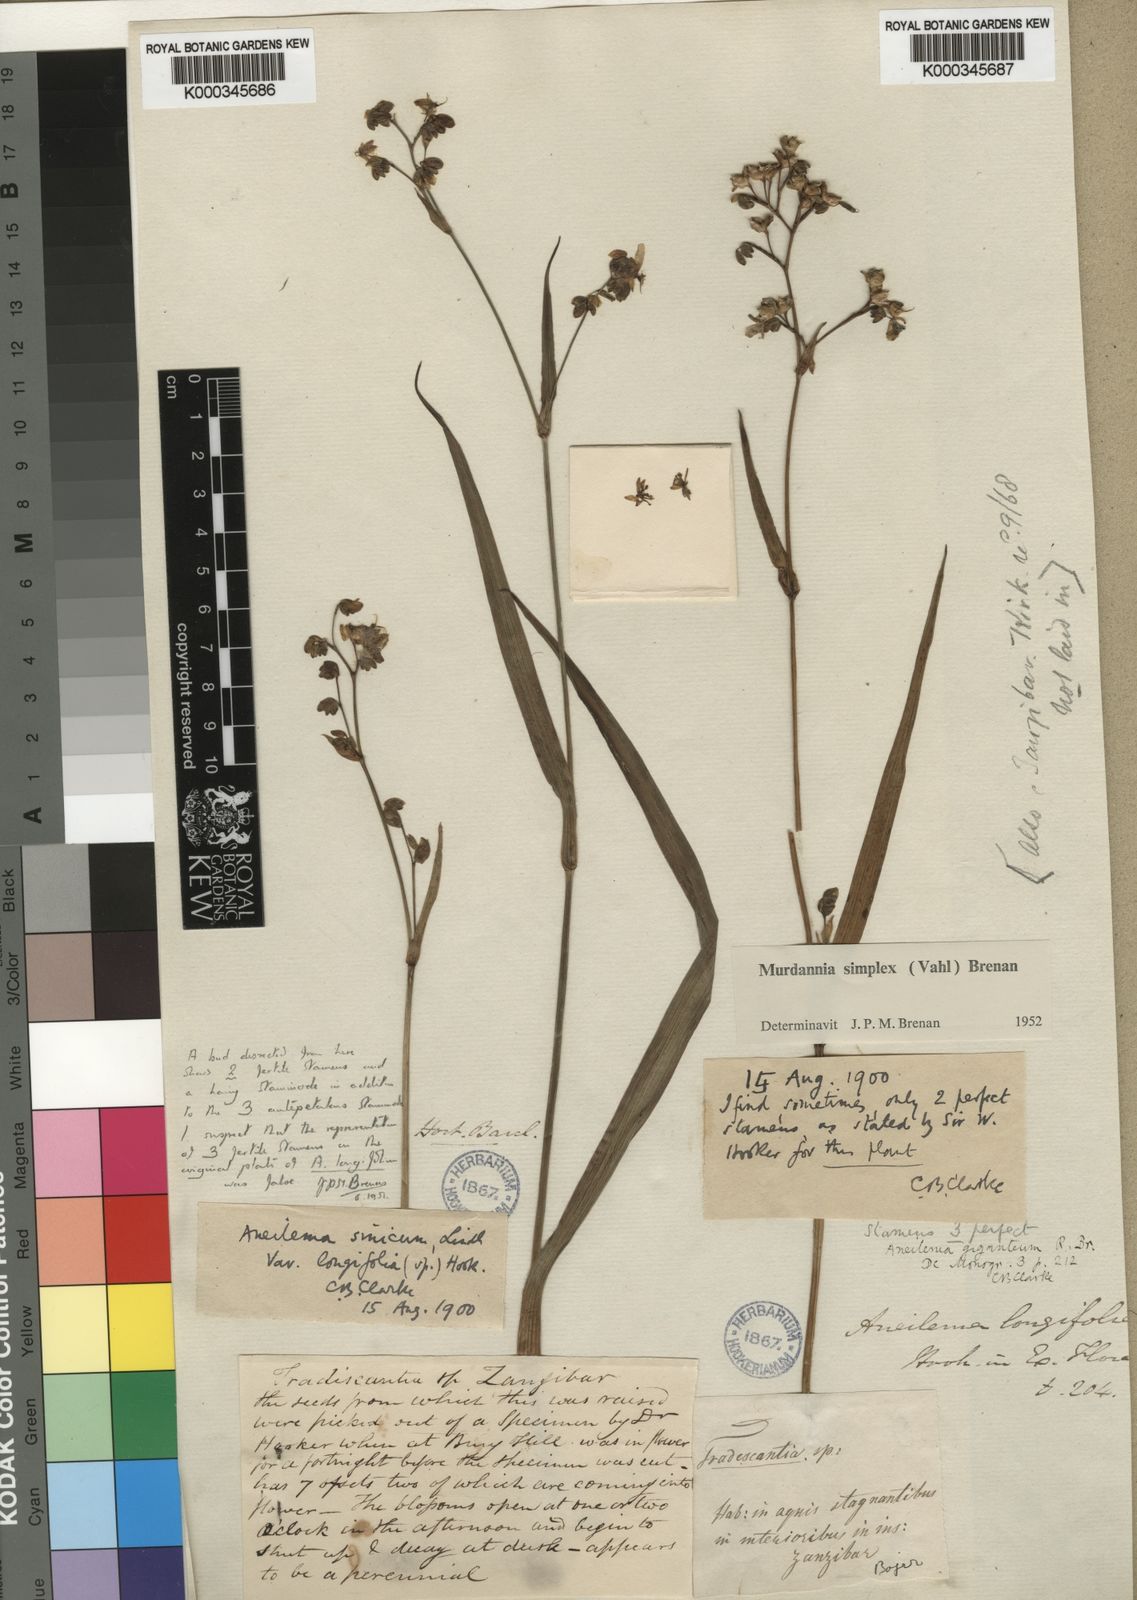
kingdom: Plantae
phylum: Tracheophyta
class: Liliopsida
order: Commelinales
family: Commelinaceae
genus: Murdannia
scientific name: Murdannia simplex
